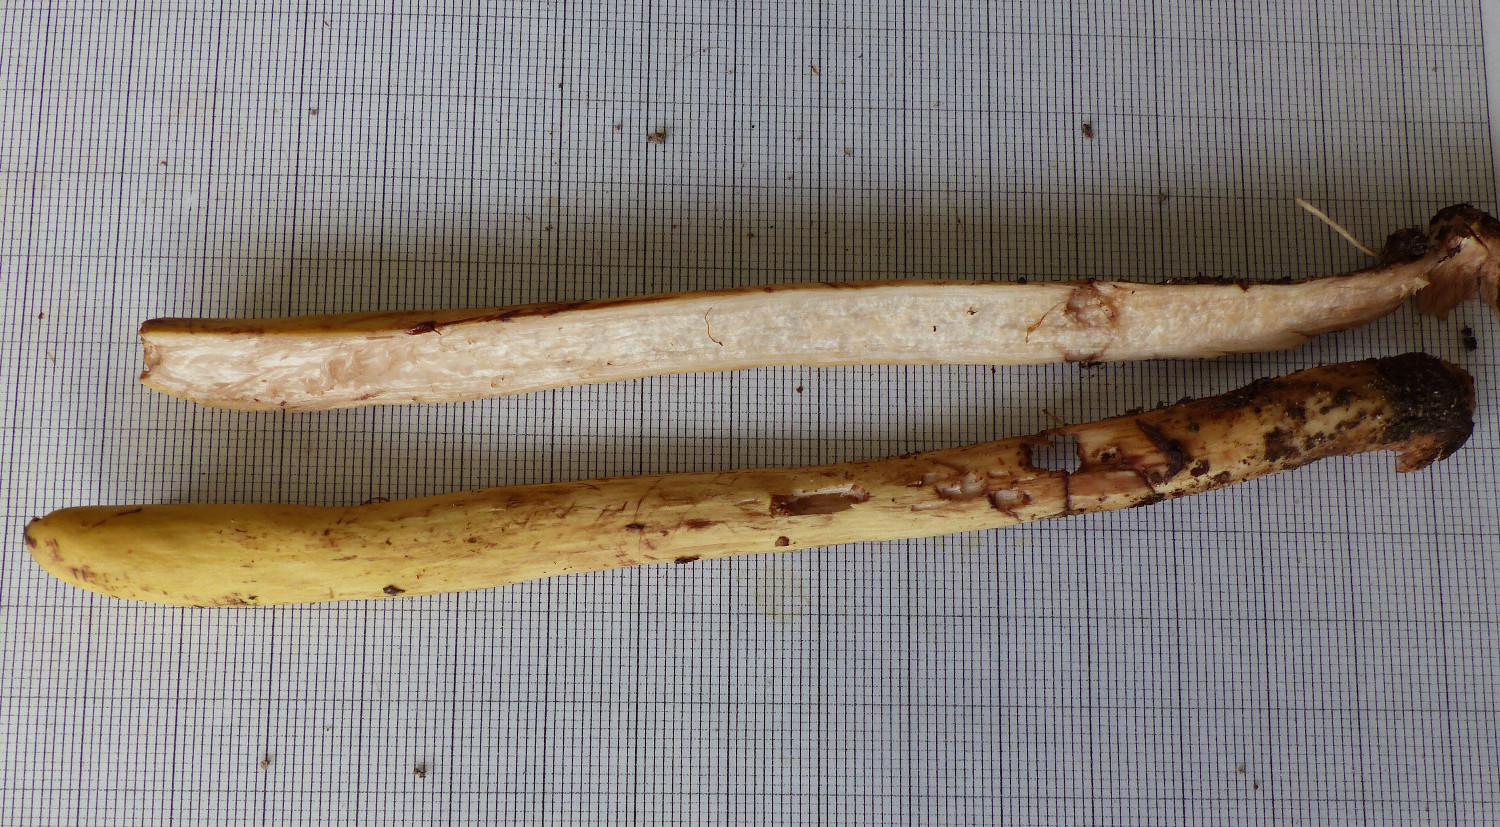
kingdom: Fungi
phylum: Basidiomycota
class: Agaricomycetes
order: Gomphales
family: Clavariadelphaceae
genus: Clavariadelphus
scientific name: Clavariadelphus pistillaris
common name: herkules-kæmpekølle
